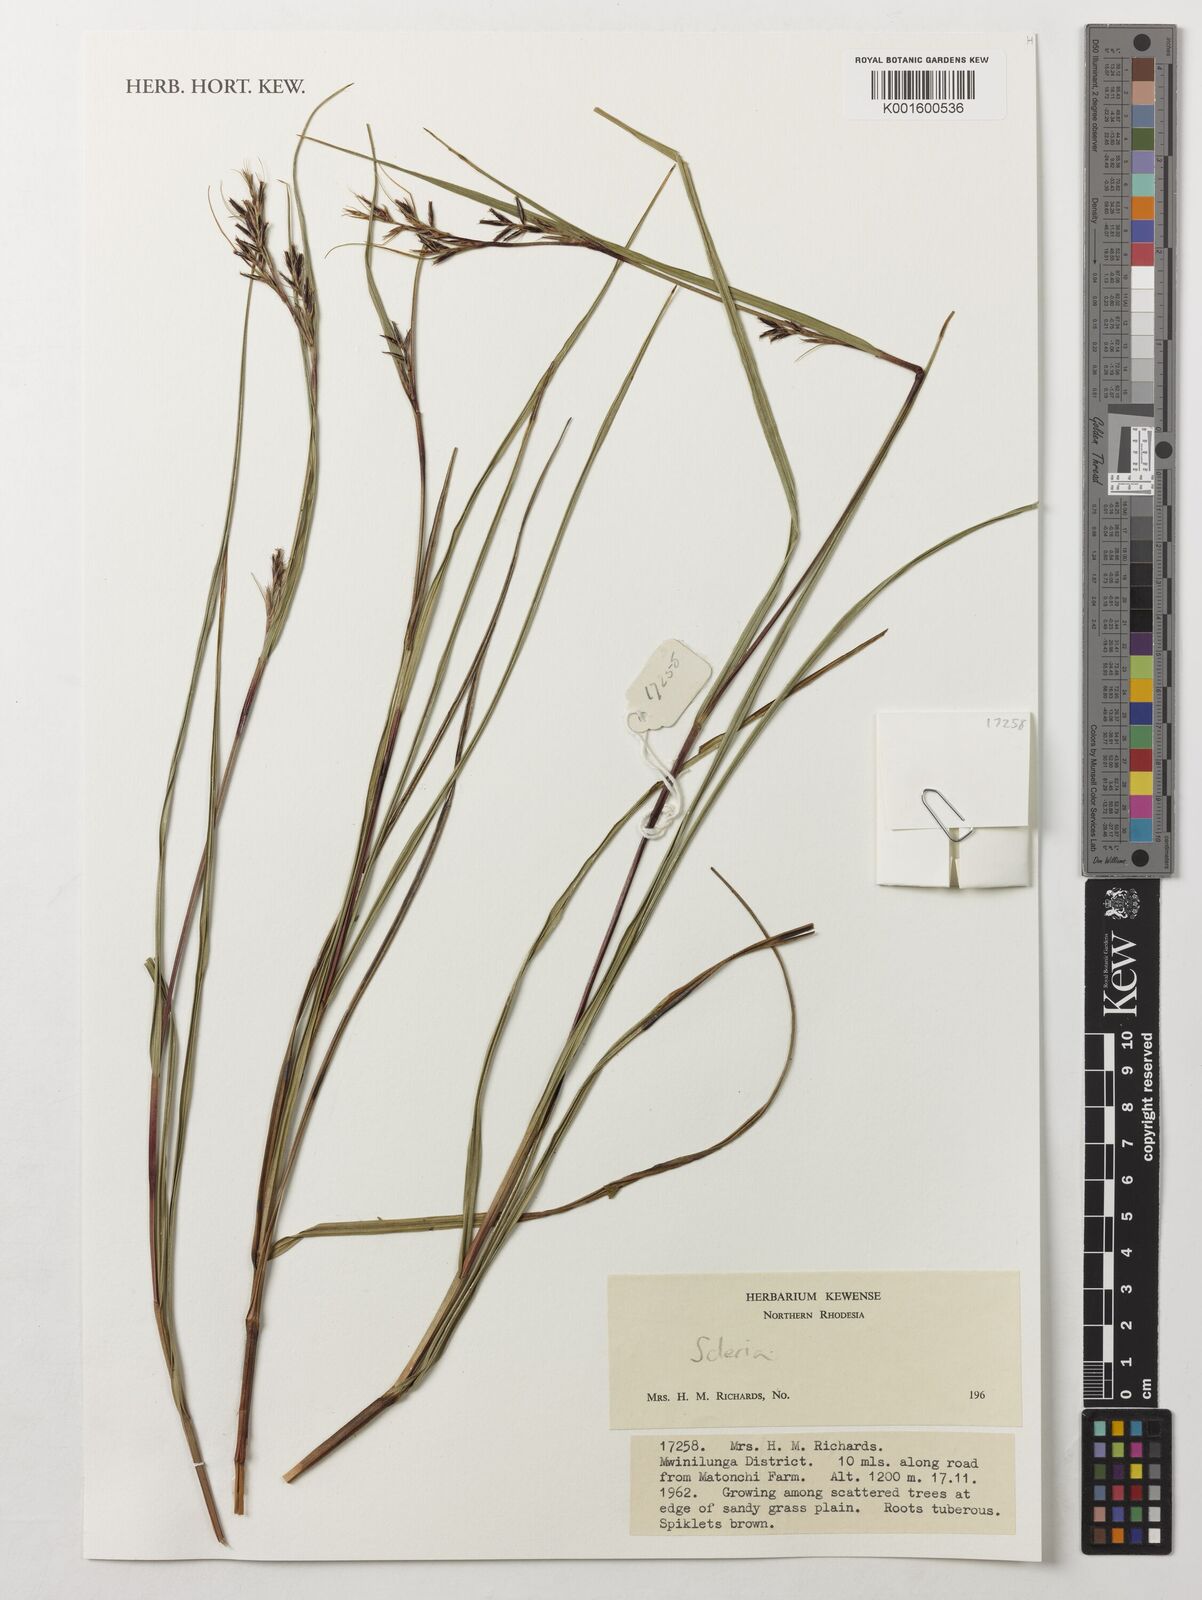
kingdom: Plantae
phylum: Tracheophyta
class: Liliopsida
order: Poales
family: Cyperaceae
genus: Scleria
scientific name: Scleria
